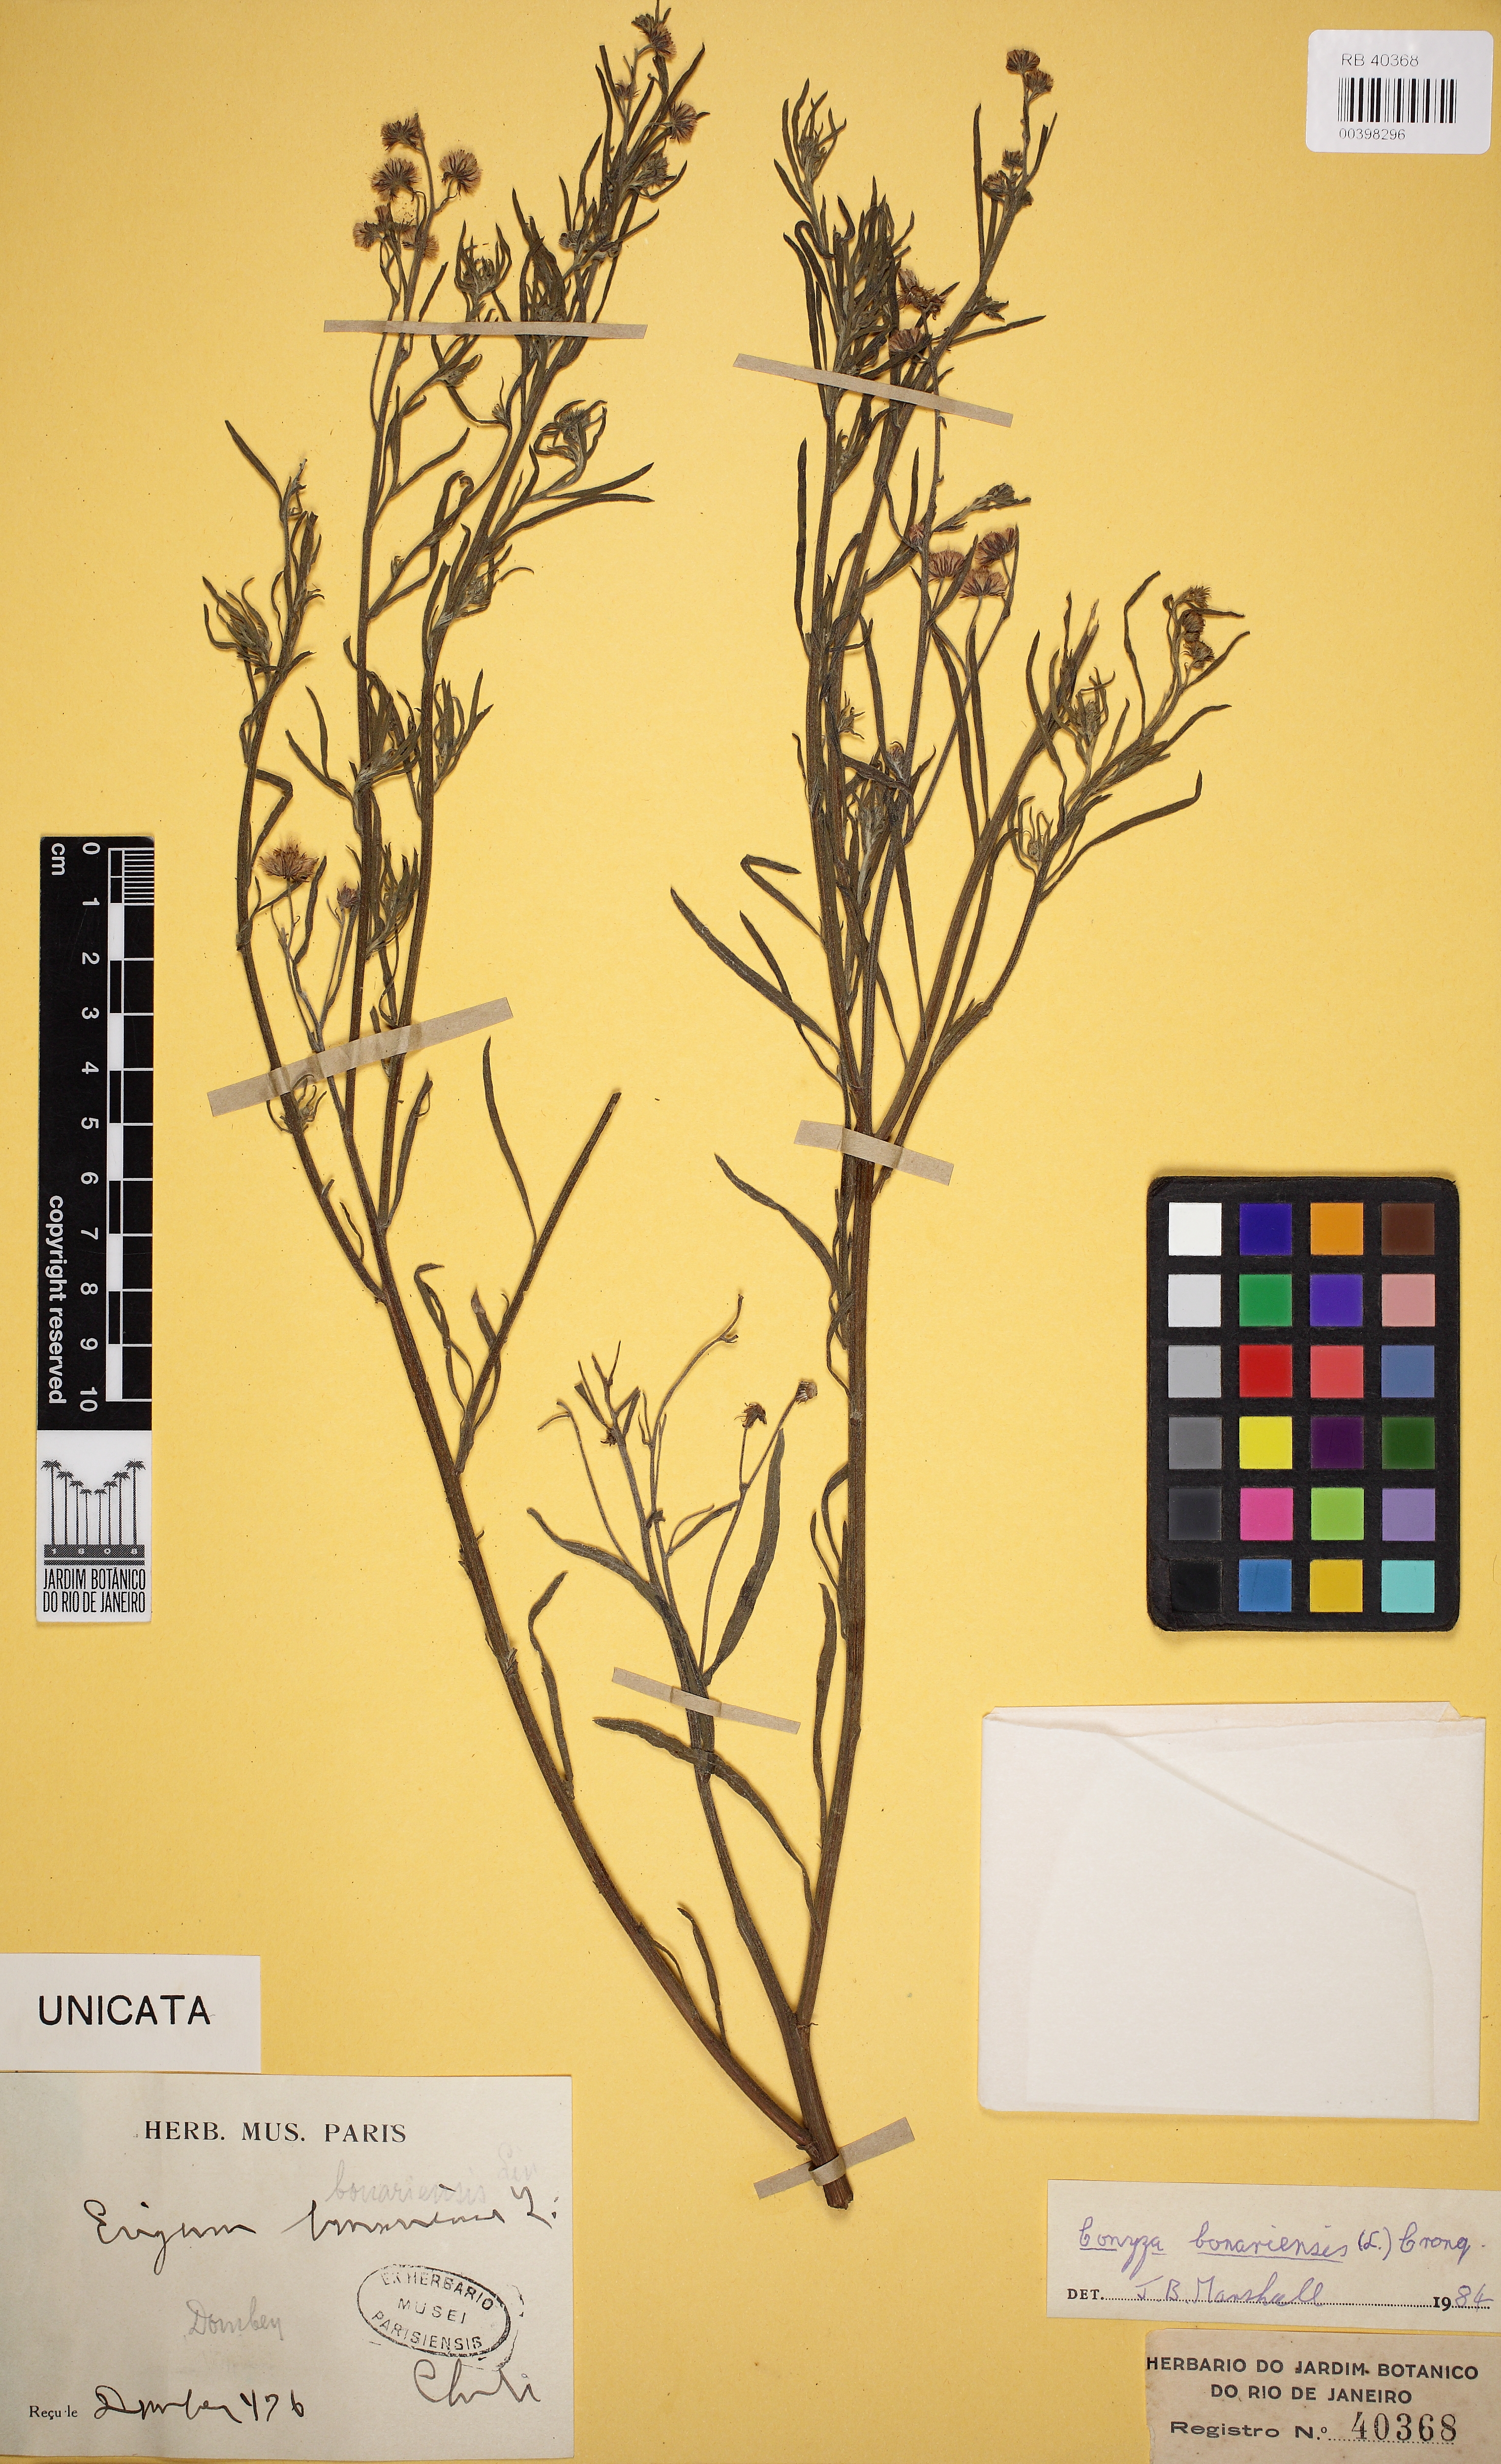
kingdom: Plantae
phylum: Tracheophyta
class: Magnoliopsida
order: Asterales
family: Asteraceae
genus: Erigeron
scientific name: Erigeron bonariensis
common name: Argentine fleabane
